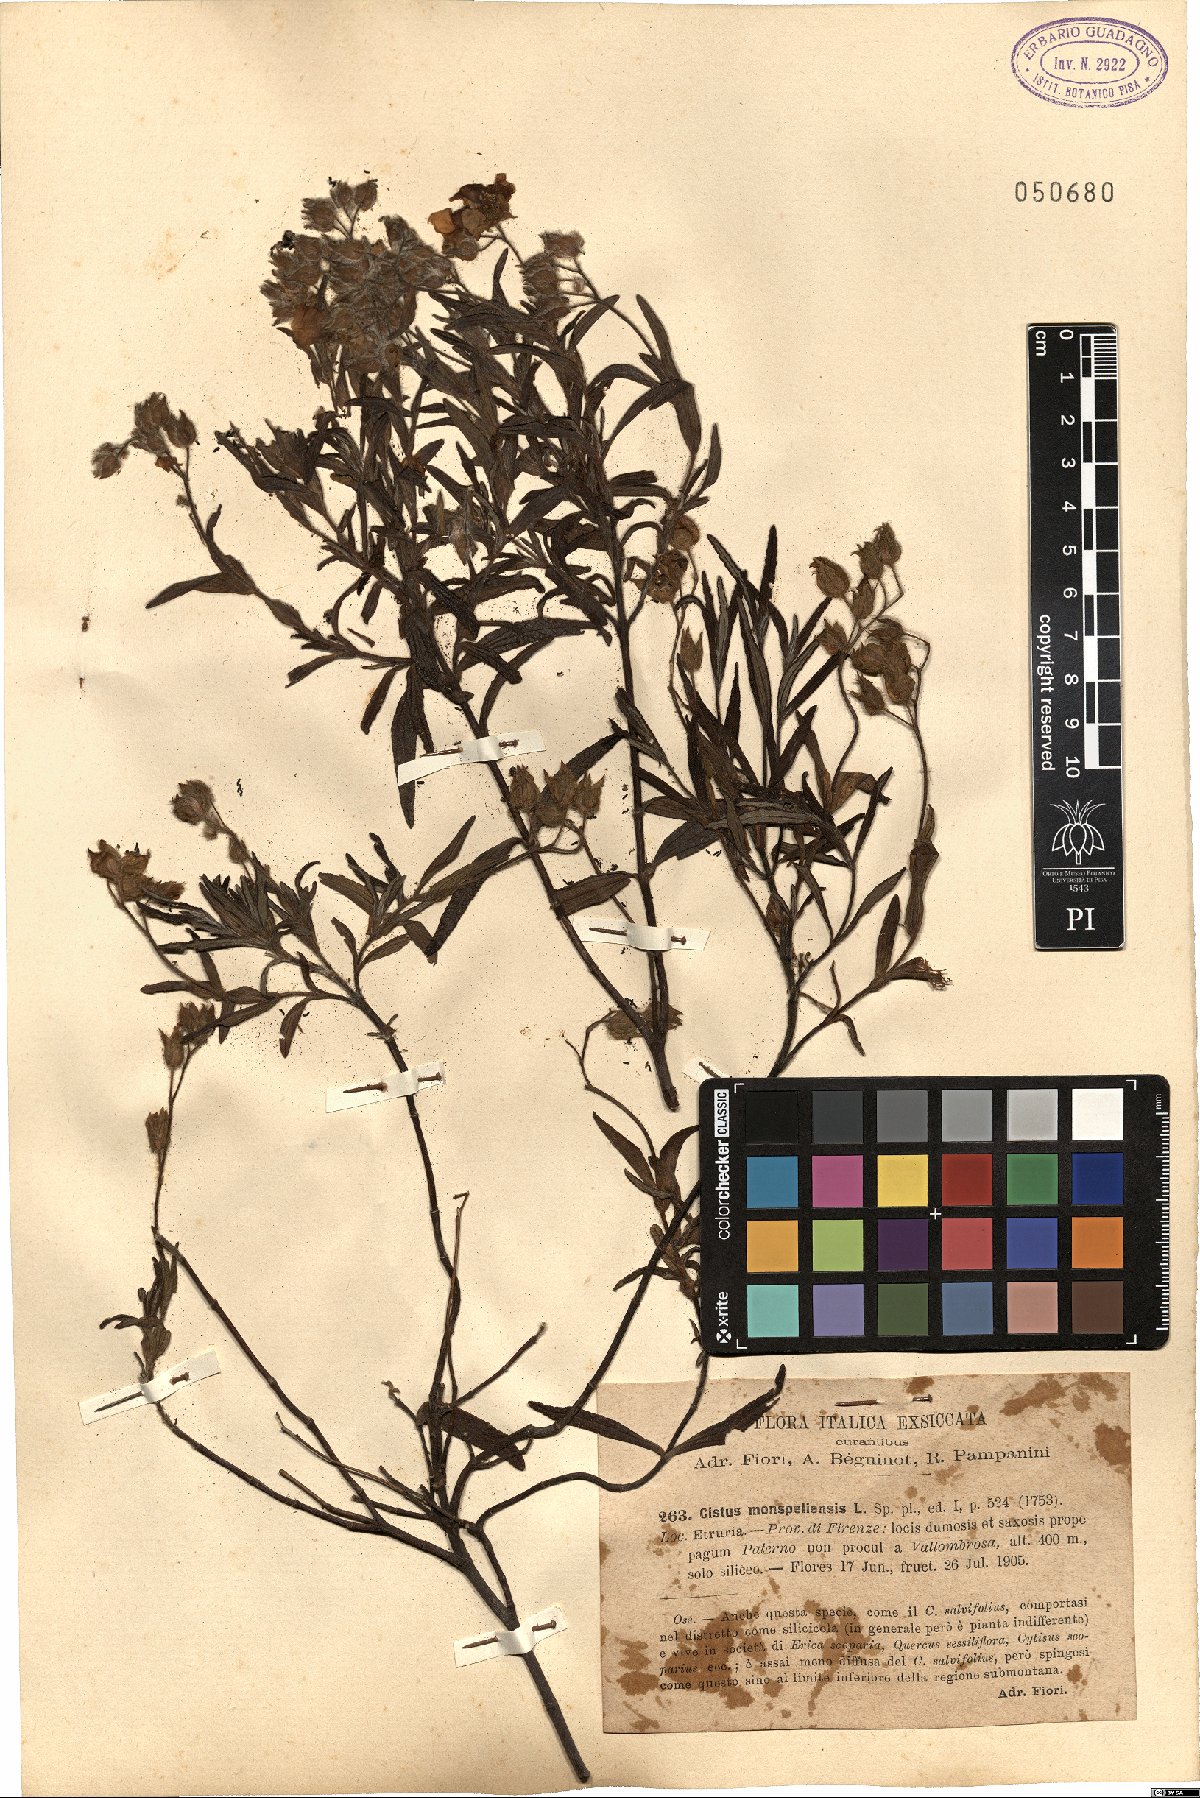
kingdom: Plantae
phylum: Tracheophyta
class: Magnoliopsida
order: Malvales
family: Cistaceae
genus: Cistus
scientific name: Cistus monspeliensis
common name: Montpelier cistus
